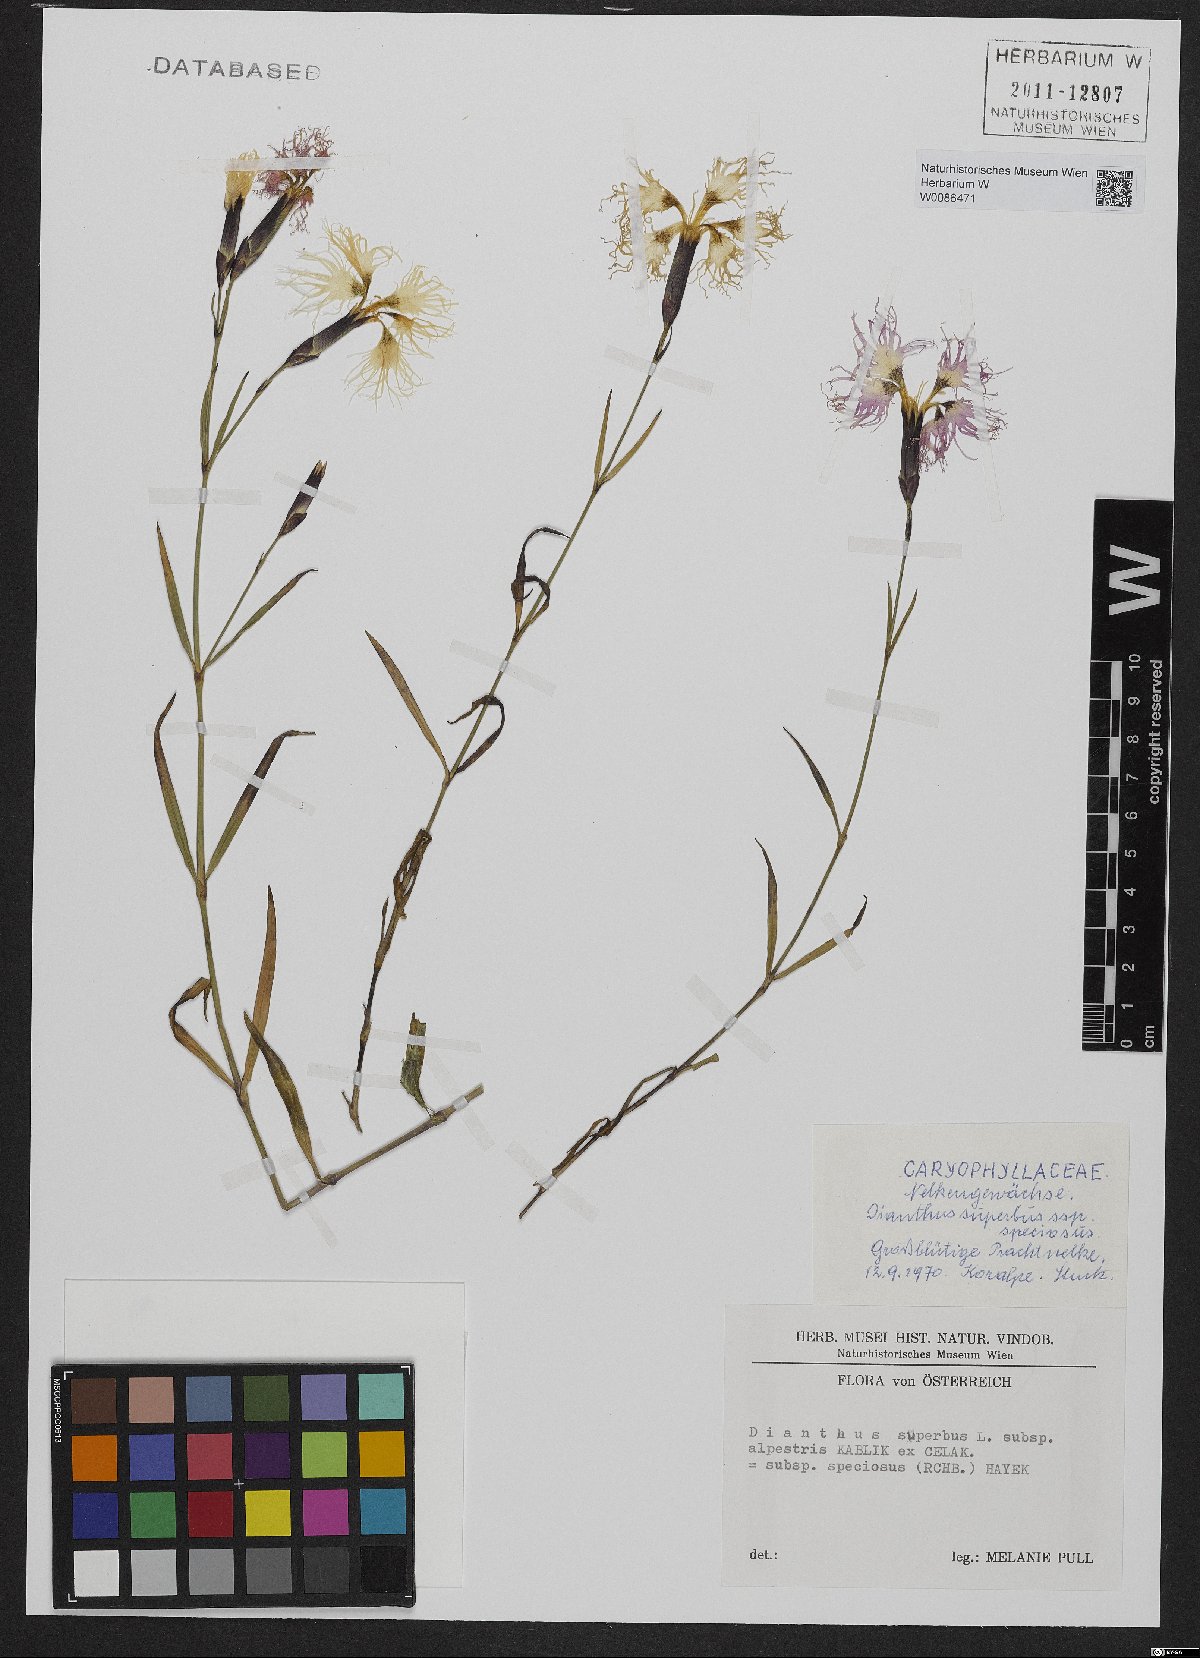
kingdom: Plantae
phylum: Tracheophyta
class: Magnoliopsida
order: Caryophyllales
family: Caryophyllaceae
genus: Dianthus
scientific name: Dianthus superbus
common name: Fringed pink
